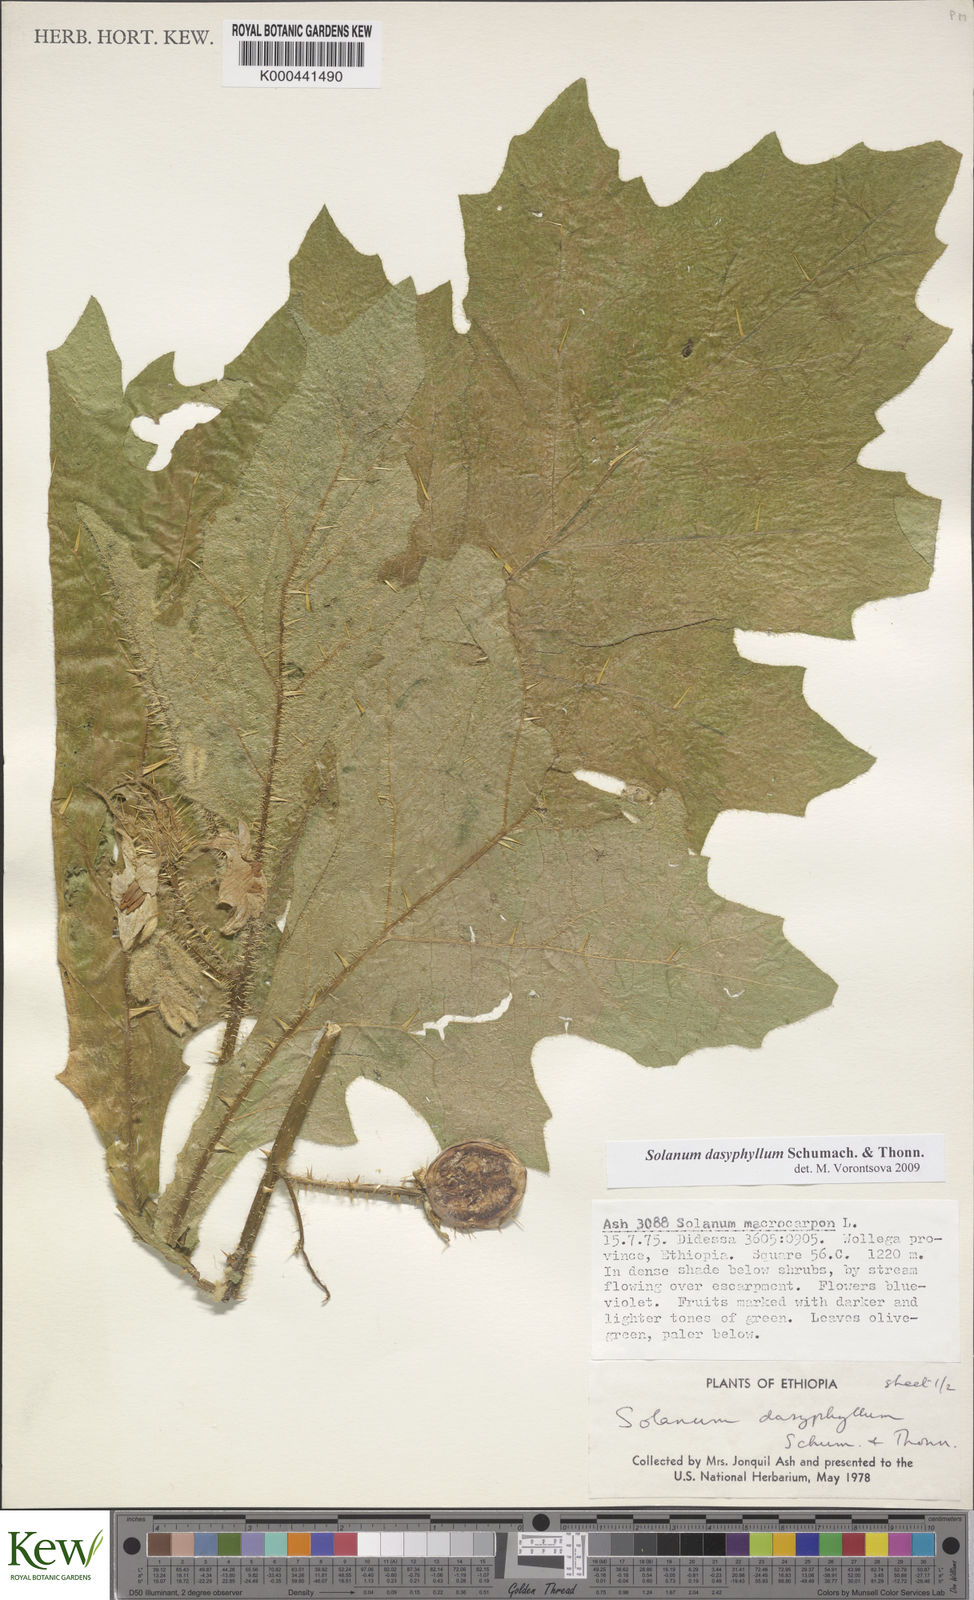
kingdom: Plantae
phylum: Tracheophyta
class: Magnoliopsida
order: Solanales
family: Solanaceae
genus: Solanum
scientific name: Solanum dasyphyllum
